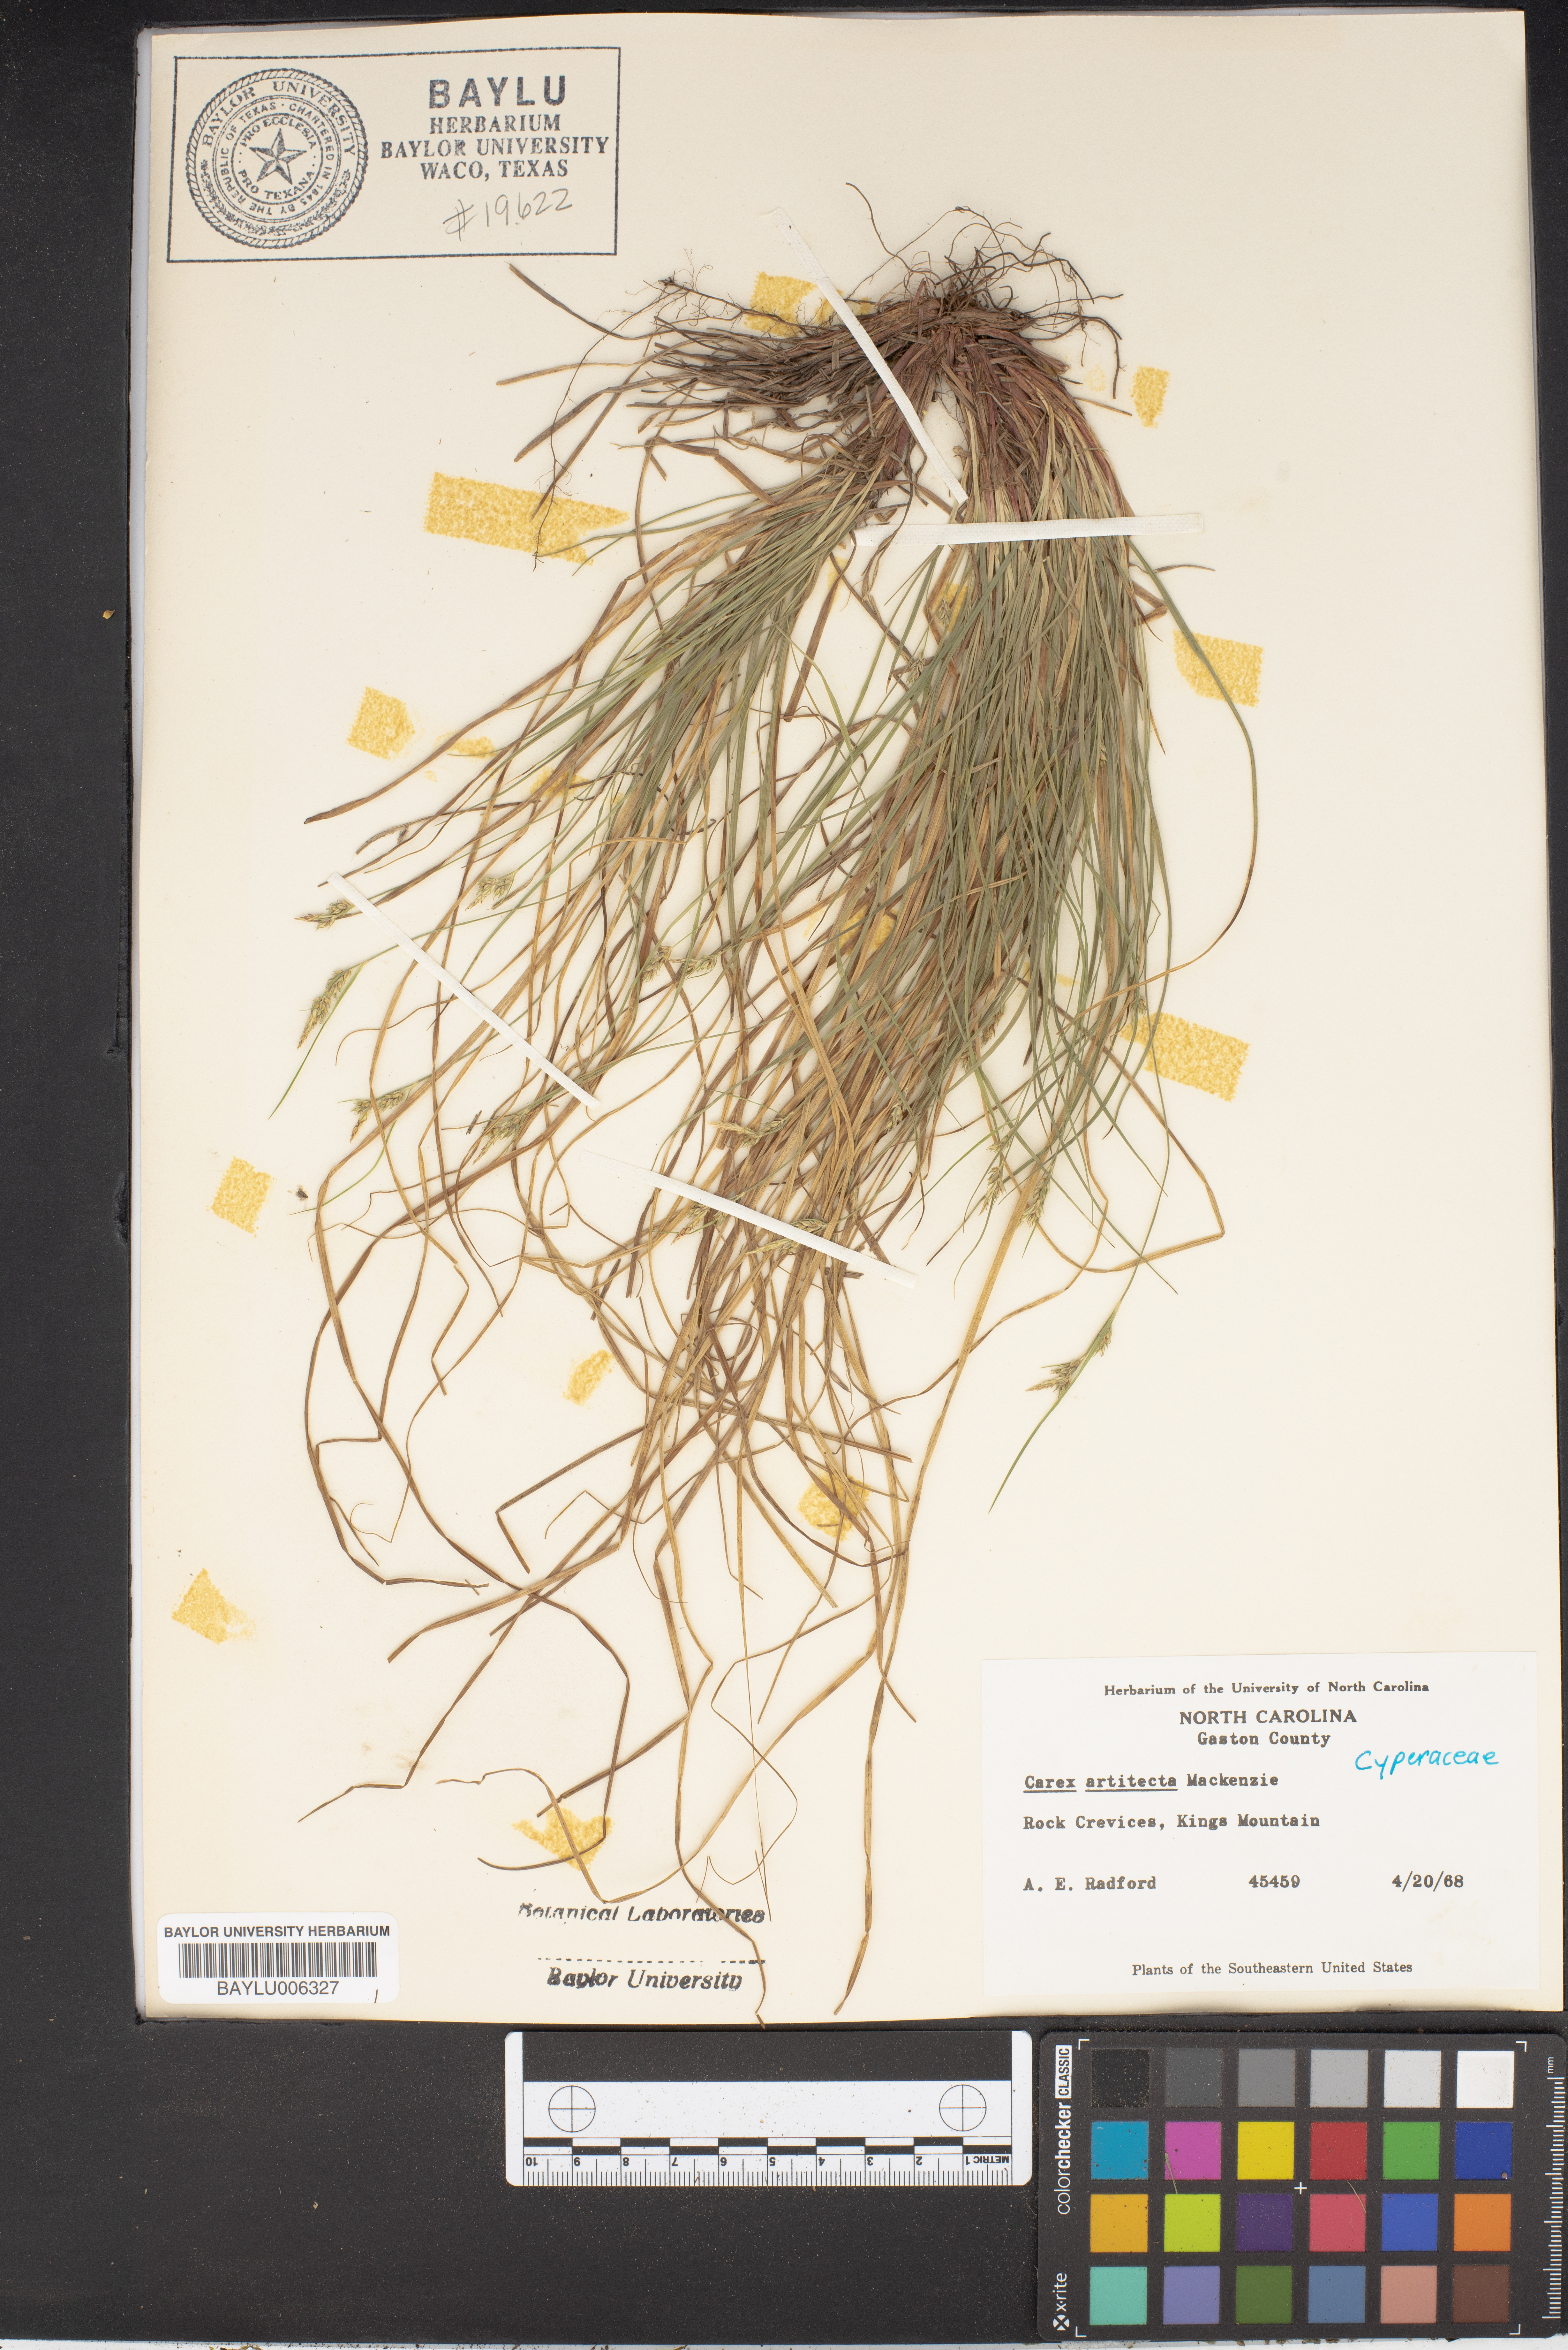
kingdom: Plantae
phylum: Tracheophyta
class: Liliopsida
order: Poales
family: Cyperaceae
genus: Carex
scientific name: Carex albicans
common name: Bellow-beaked sedge
